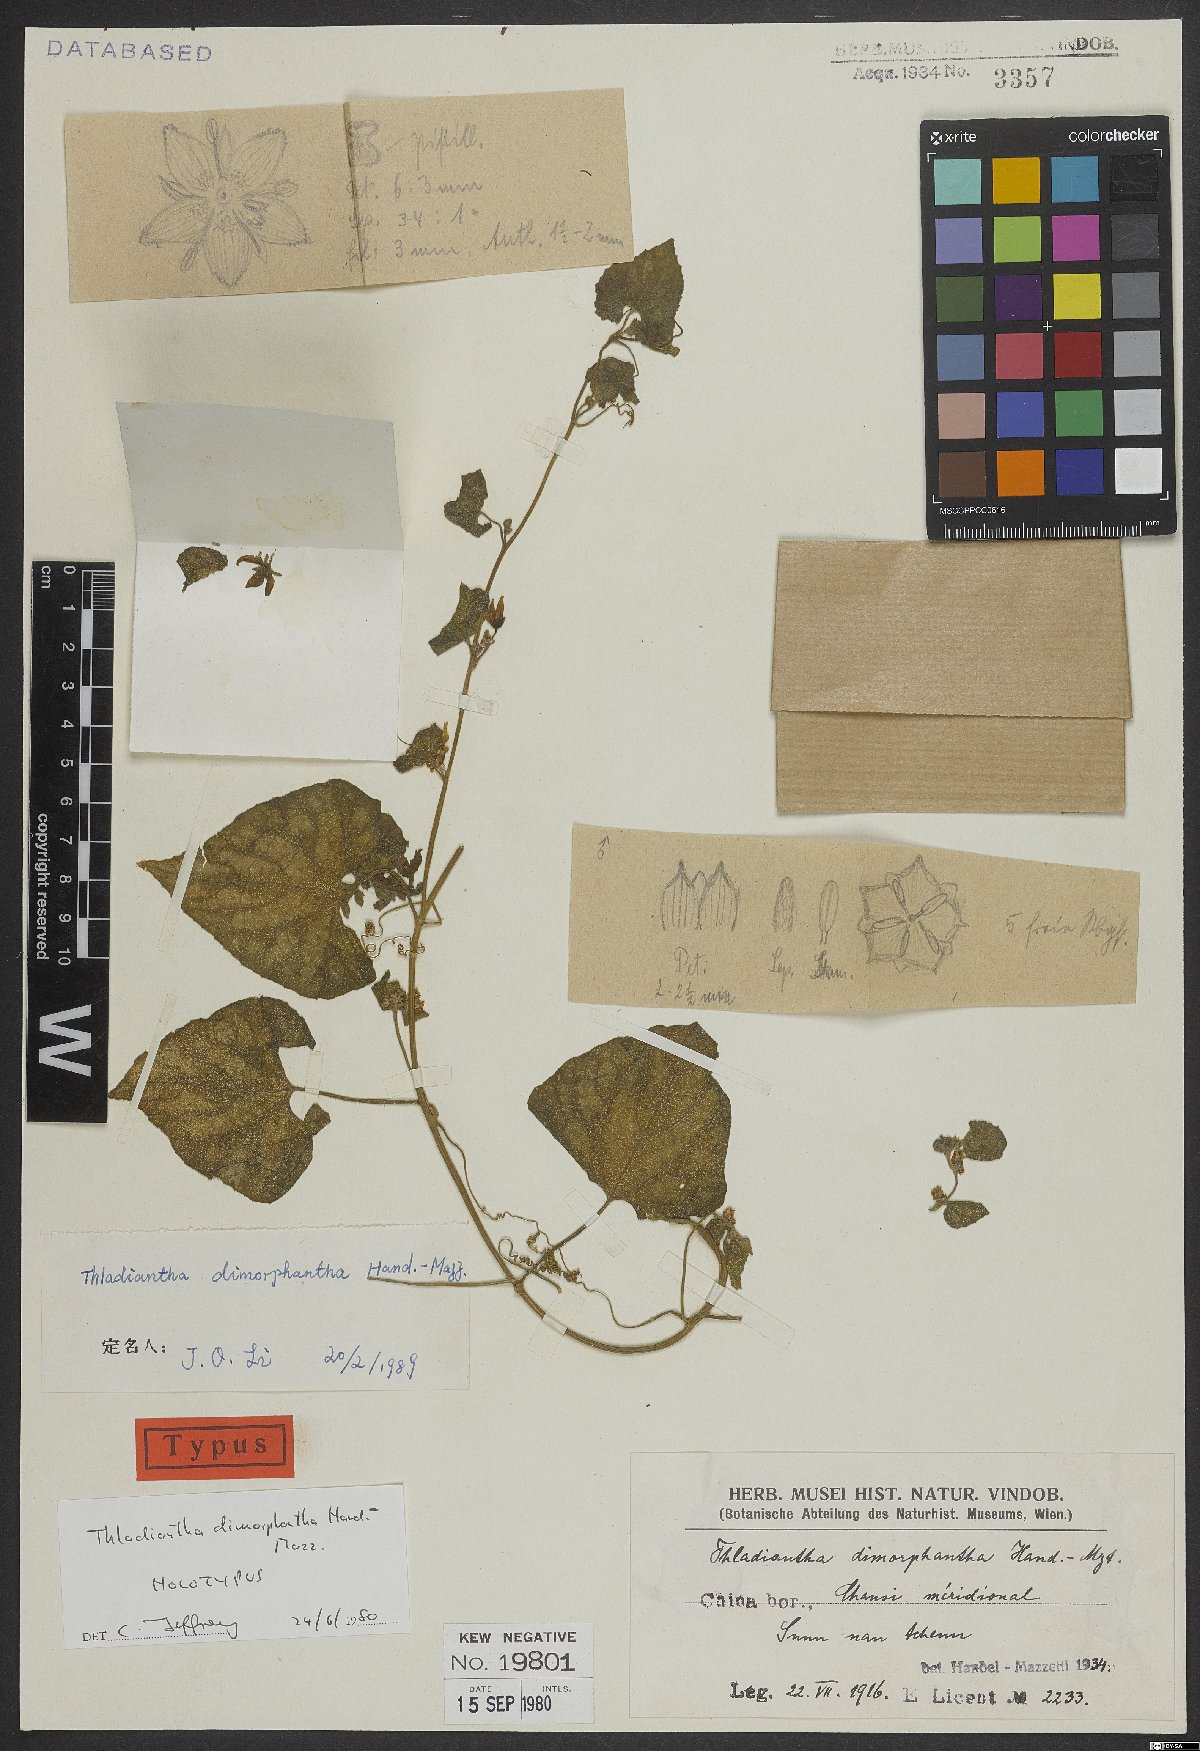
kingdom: Plantae
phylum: Tracheophyta
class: Magnoliopsida
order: Cucurbitales
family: Cucurbitaceae
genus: Thladiantha
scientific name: Thladiantha dimorphantha
